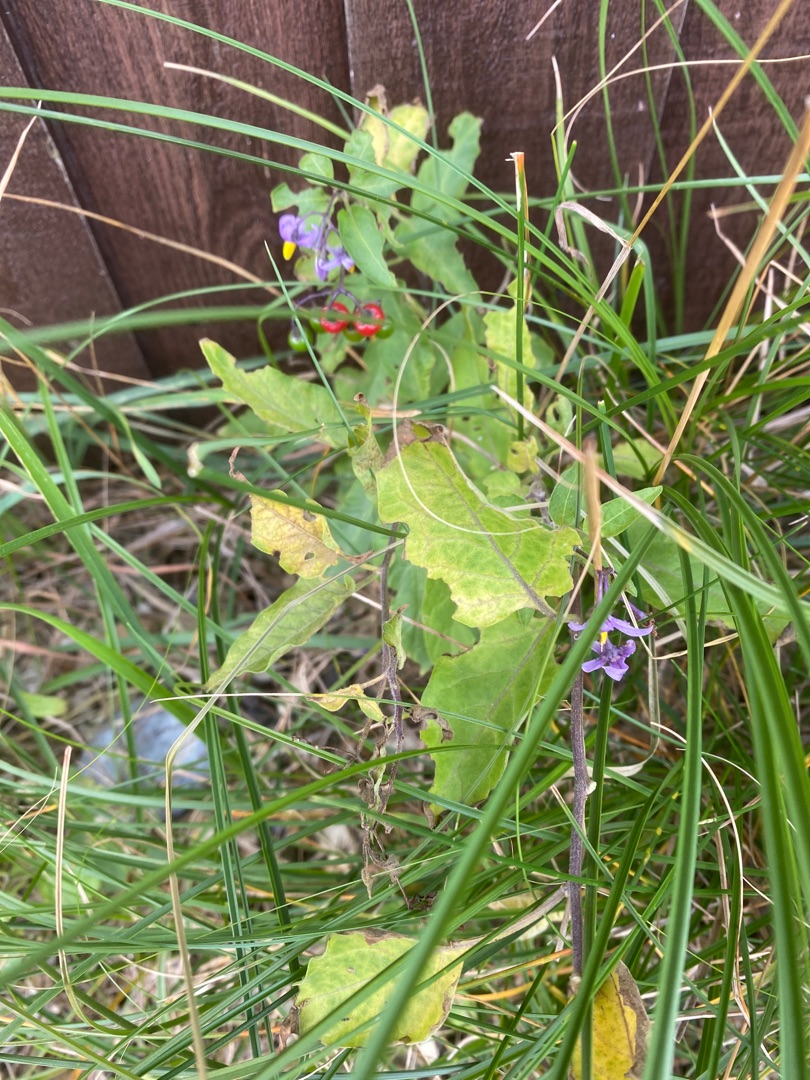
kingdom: Plantae
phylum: Tracheophyta
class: Magnoliopsida
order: Solanales
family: Solanaceae
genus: Solanum
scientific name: Solanum dulcamara
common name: Bittersød natskygge
